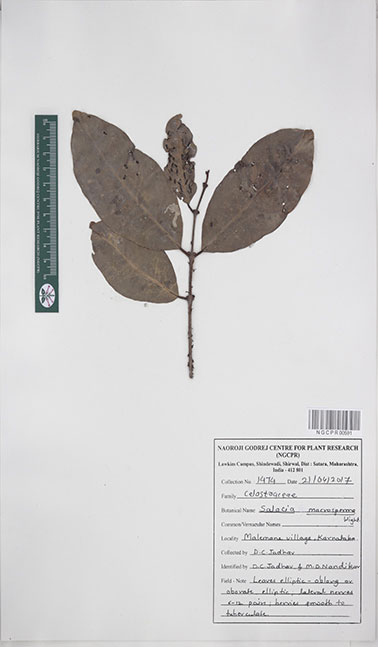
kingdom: Plantae
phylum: Tracheophyta
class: Magnoliopsida
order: Celastrales
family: Celastraceae
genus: Salacia
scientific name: Salacia macrosperma
